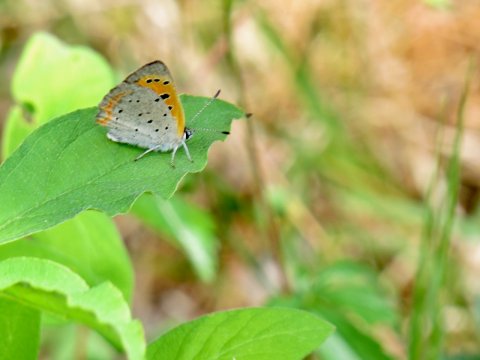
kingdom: Animalia
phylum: Arthropoda
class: Insecta
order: Lepidoptera
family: Lycaenidae
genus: Lycaena
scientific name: Lycaena phlaeas
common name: American Copper
